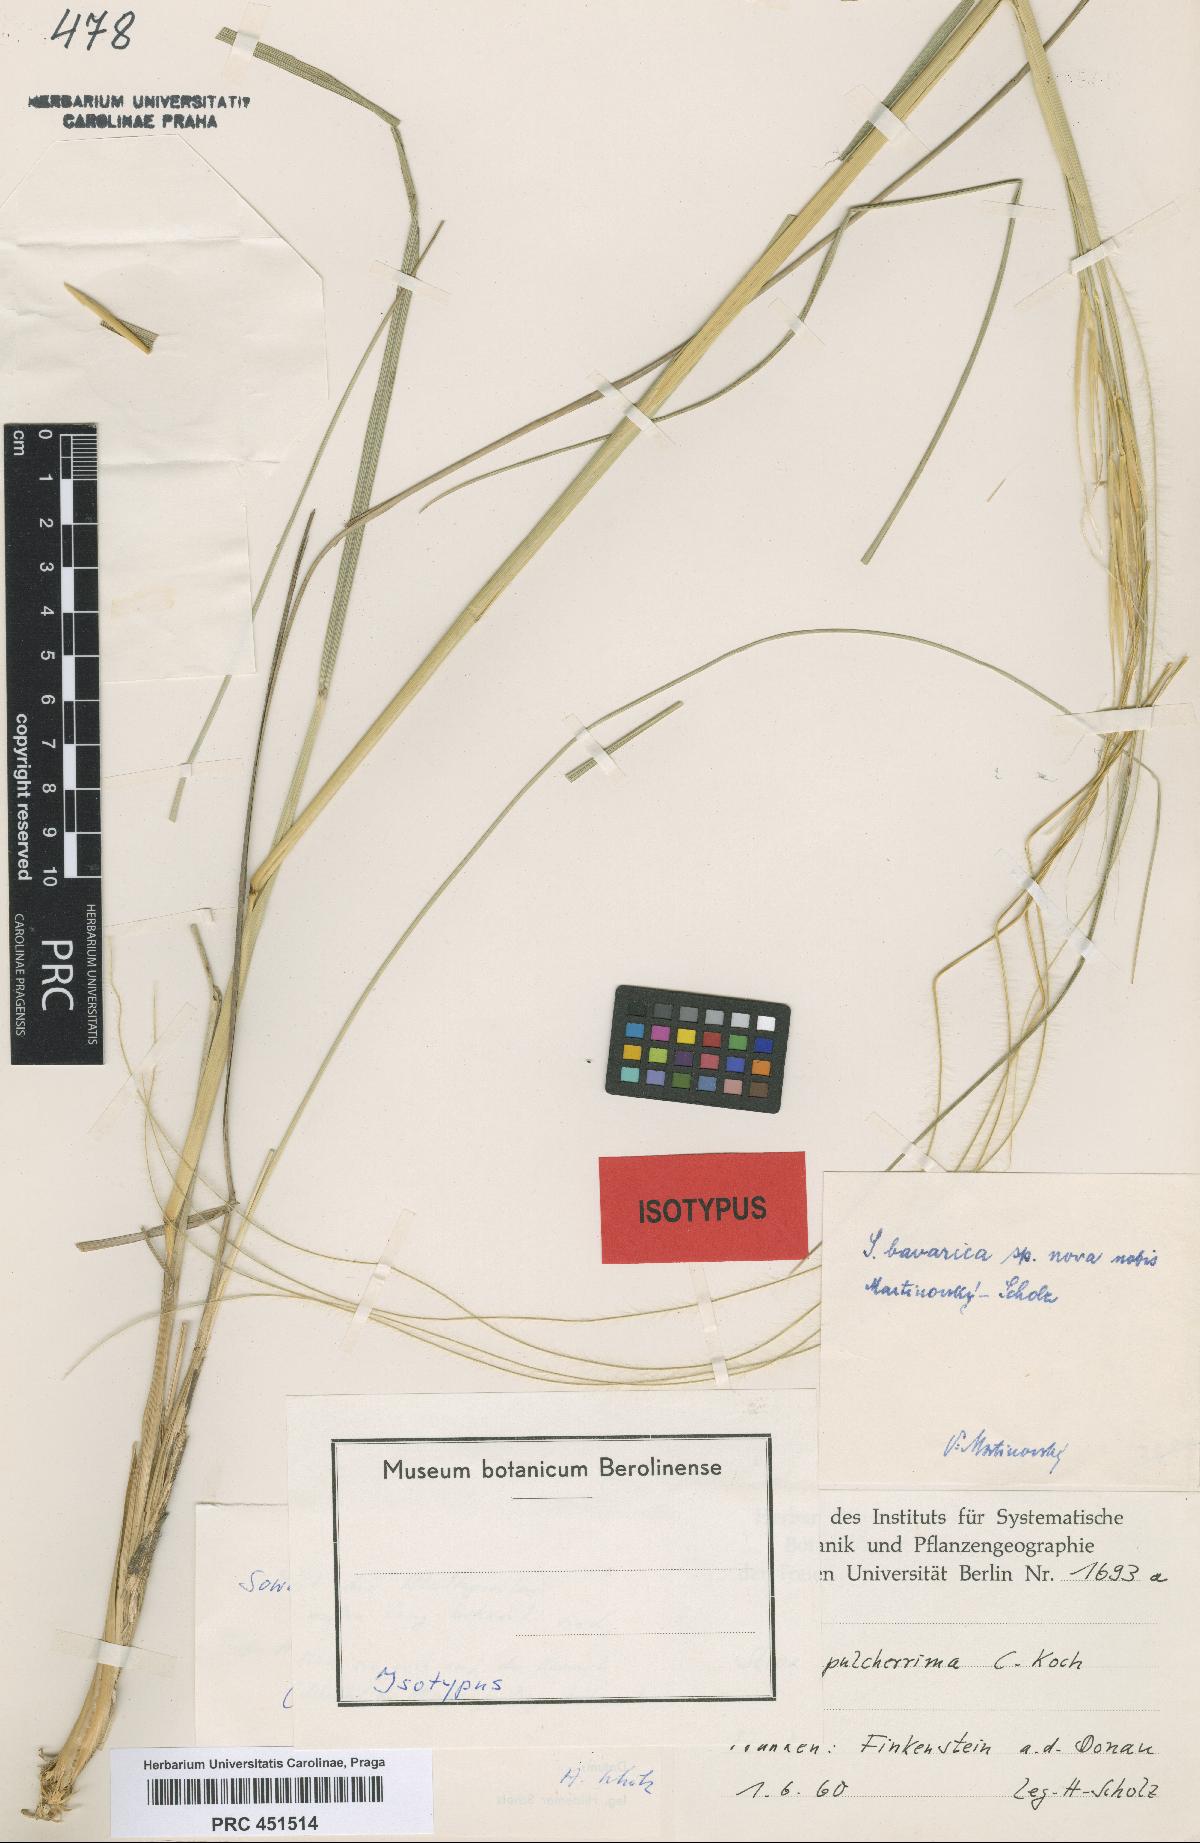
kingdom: Plantae
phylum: Tracheophyta
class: Liliopsida
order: Poales
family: Poaceae
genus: Stipa
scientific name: Stipa bavarica
